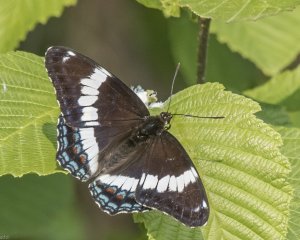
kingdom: Animalia
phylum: Arthropoda
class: Insecta
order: Lepidoptera
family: Nymphalidae
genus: Limenitis
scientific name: Limenitis arthemis
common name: Red-spotted Admiral
